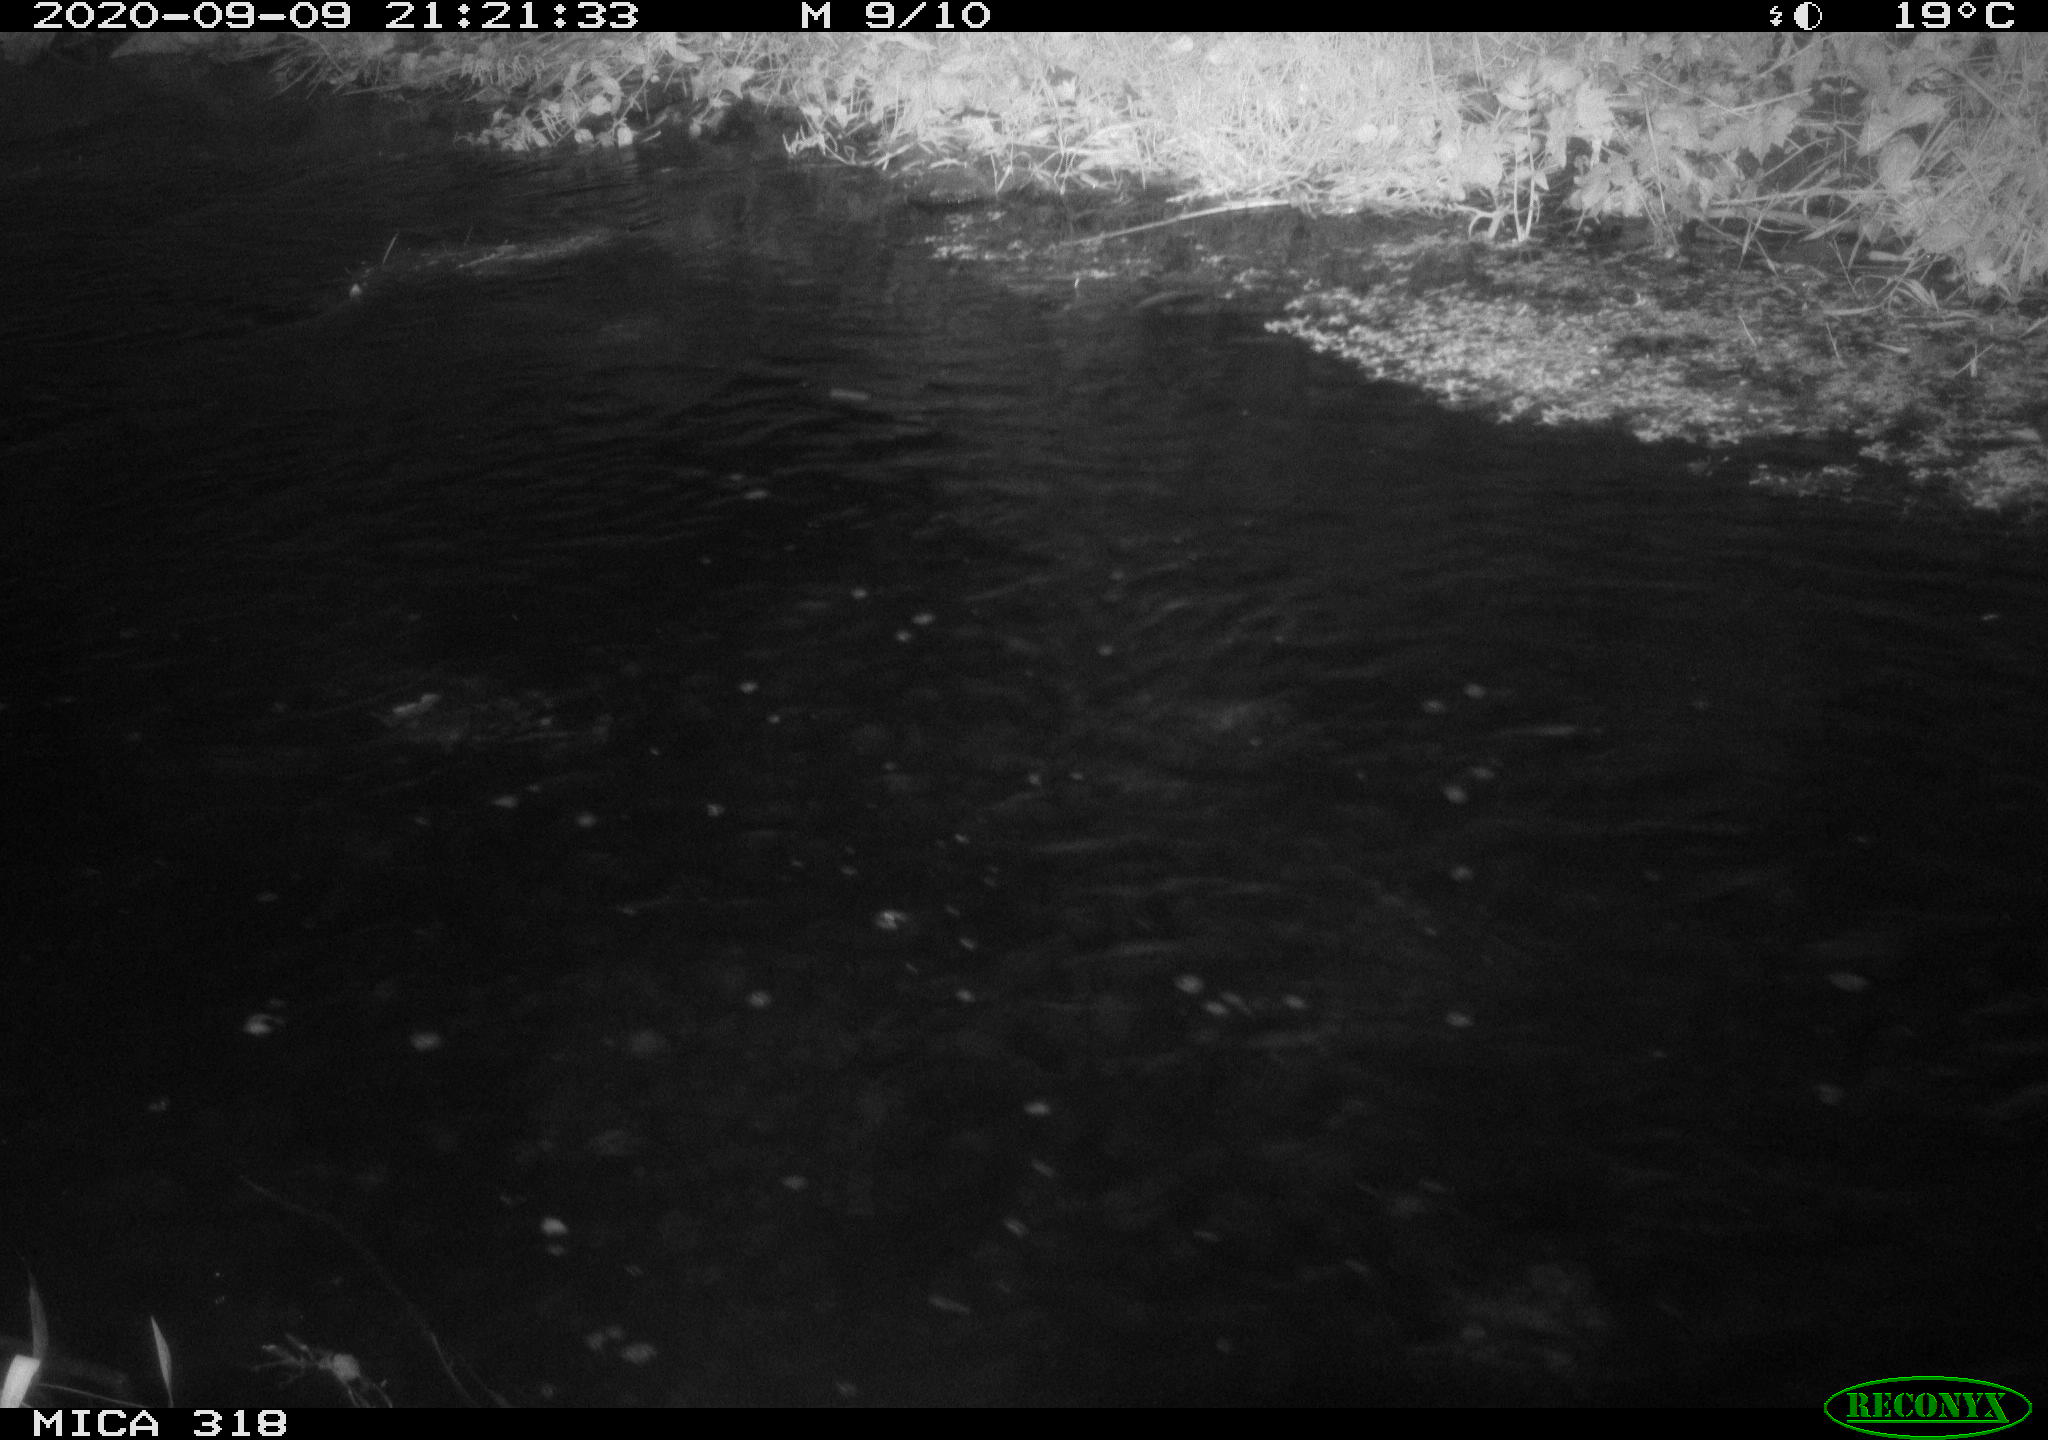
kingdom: Animalia
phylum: Chordata
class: Aves
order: Pelecaniformes
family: Ardeidae
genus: Ardea
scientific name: Ardea cinerea
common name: Grey heron
